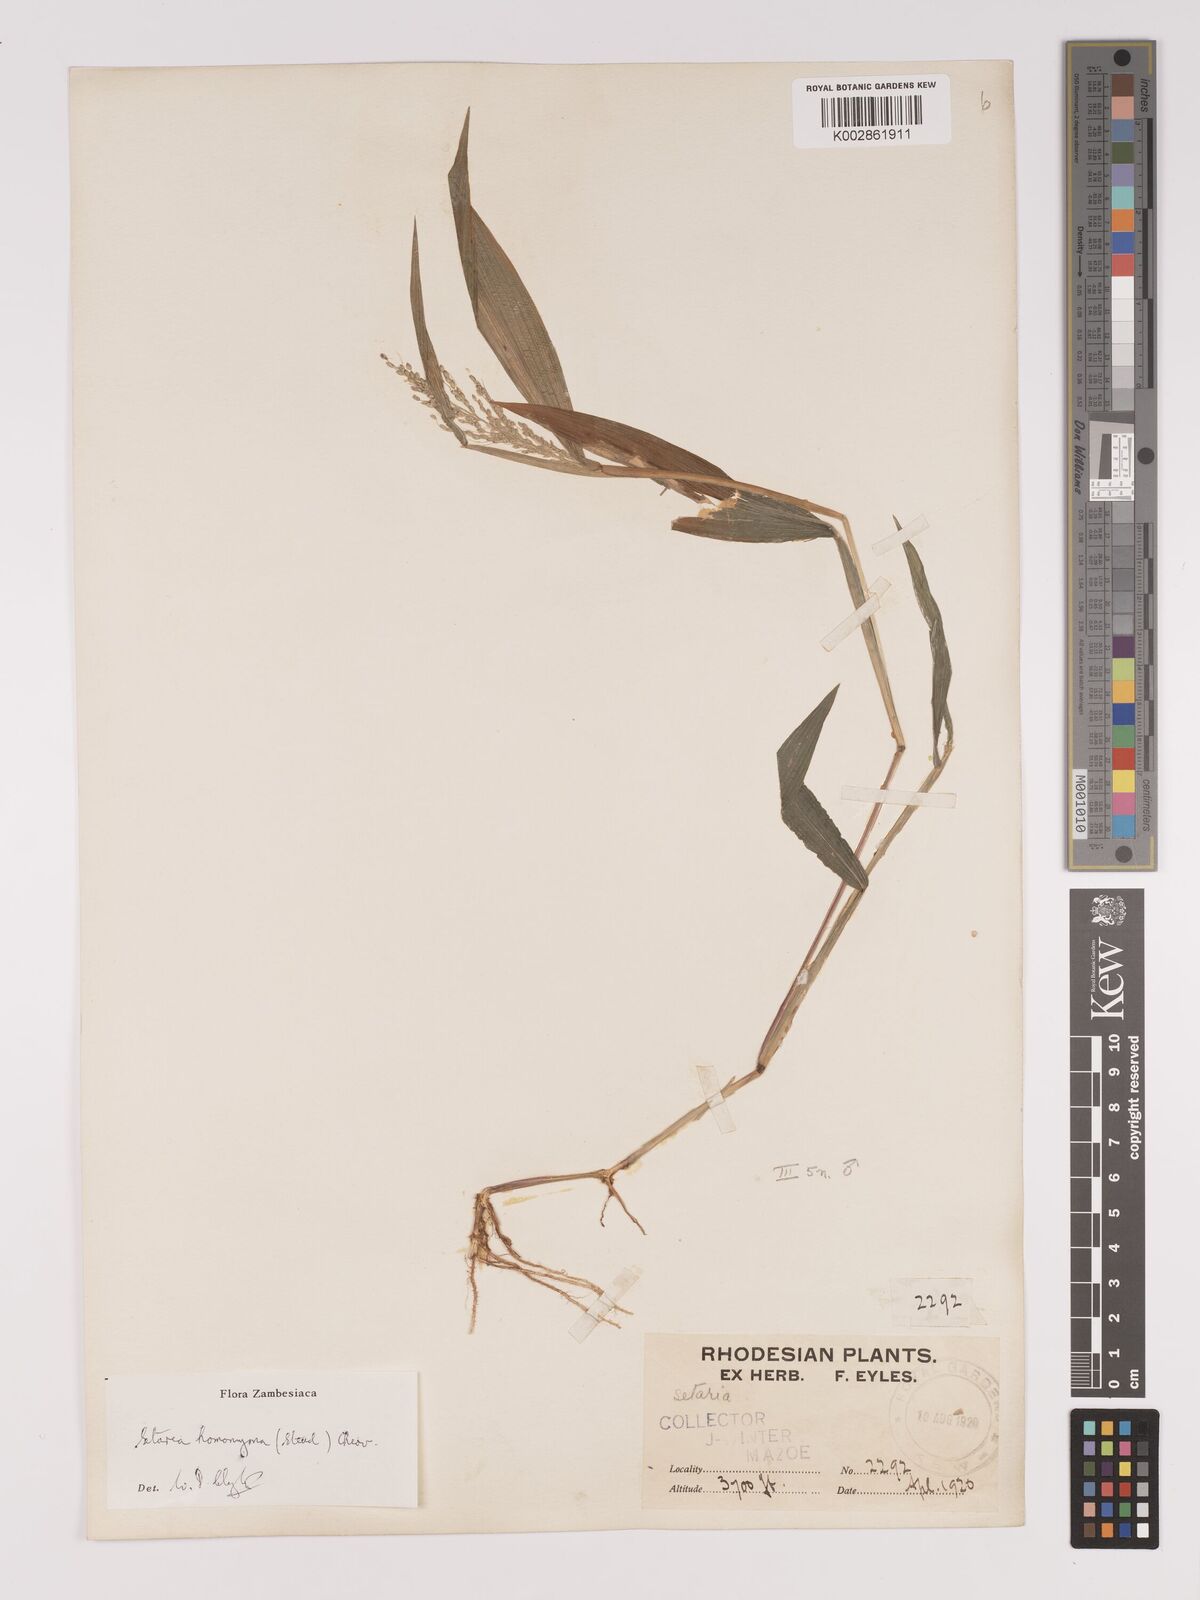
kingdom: Plantae
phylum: Tracheophyta
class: Liliopsida
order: Poales
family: Poaceae
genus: Setaria
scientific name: Setaria homonyma
